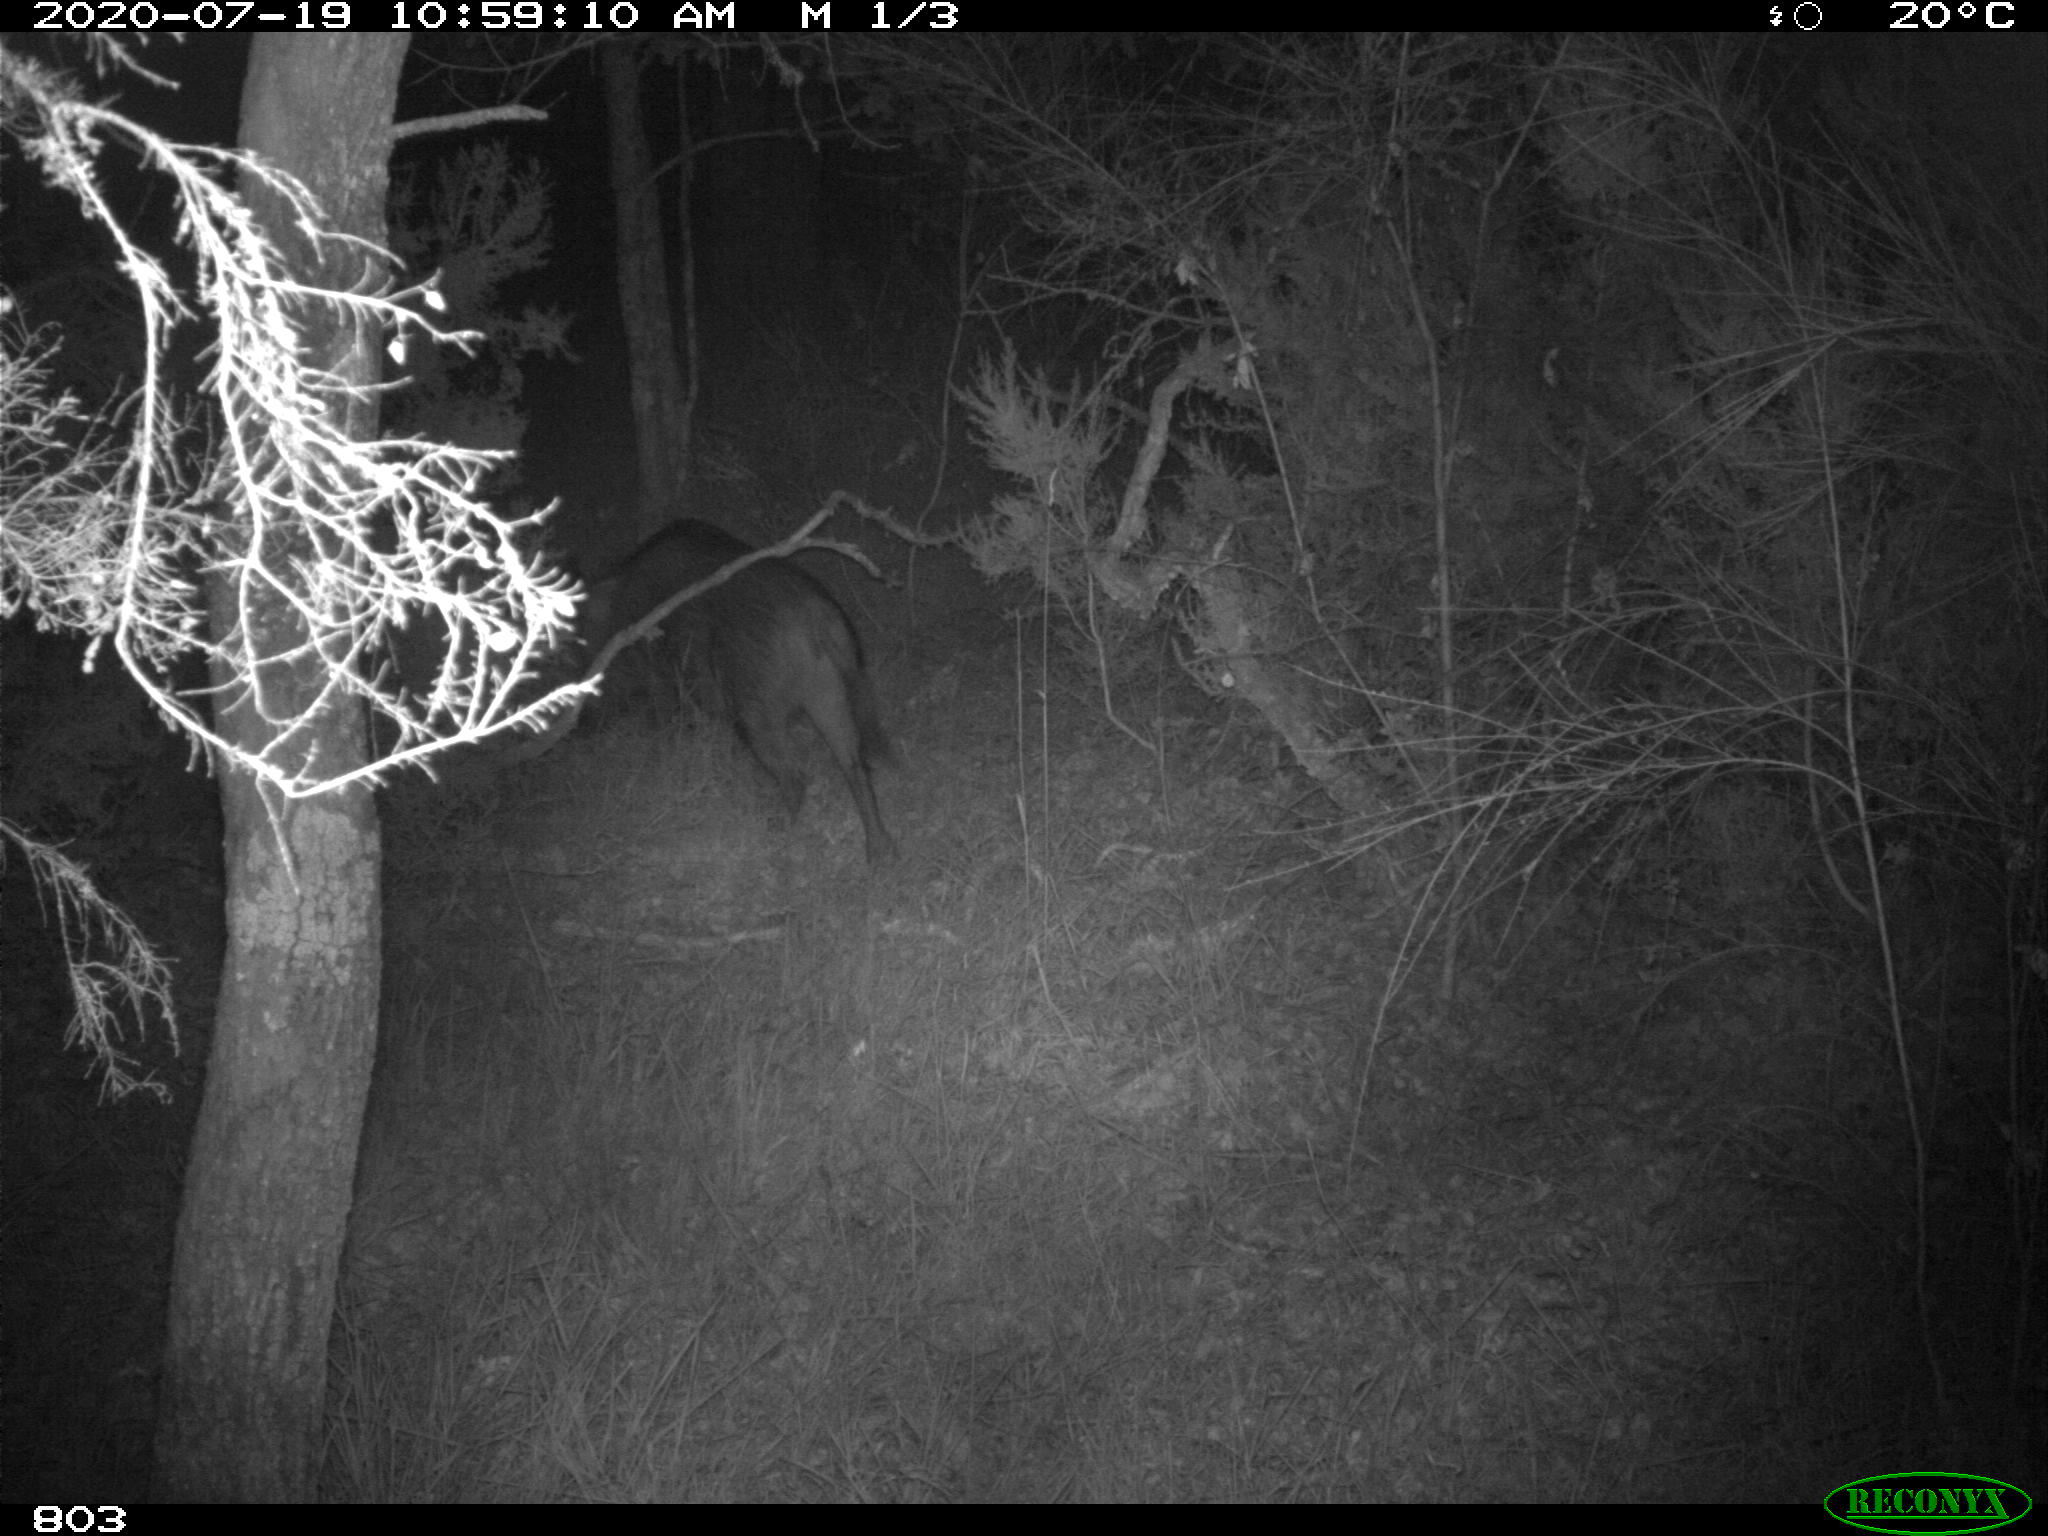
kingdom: Animalia
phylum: Chordata
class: Mammalia
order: Artiodactyla
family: Suidae
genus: Sus
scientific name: Sus scrofa
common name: Wild boar
